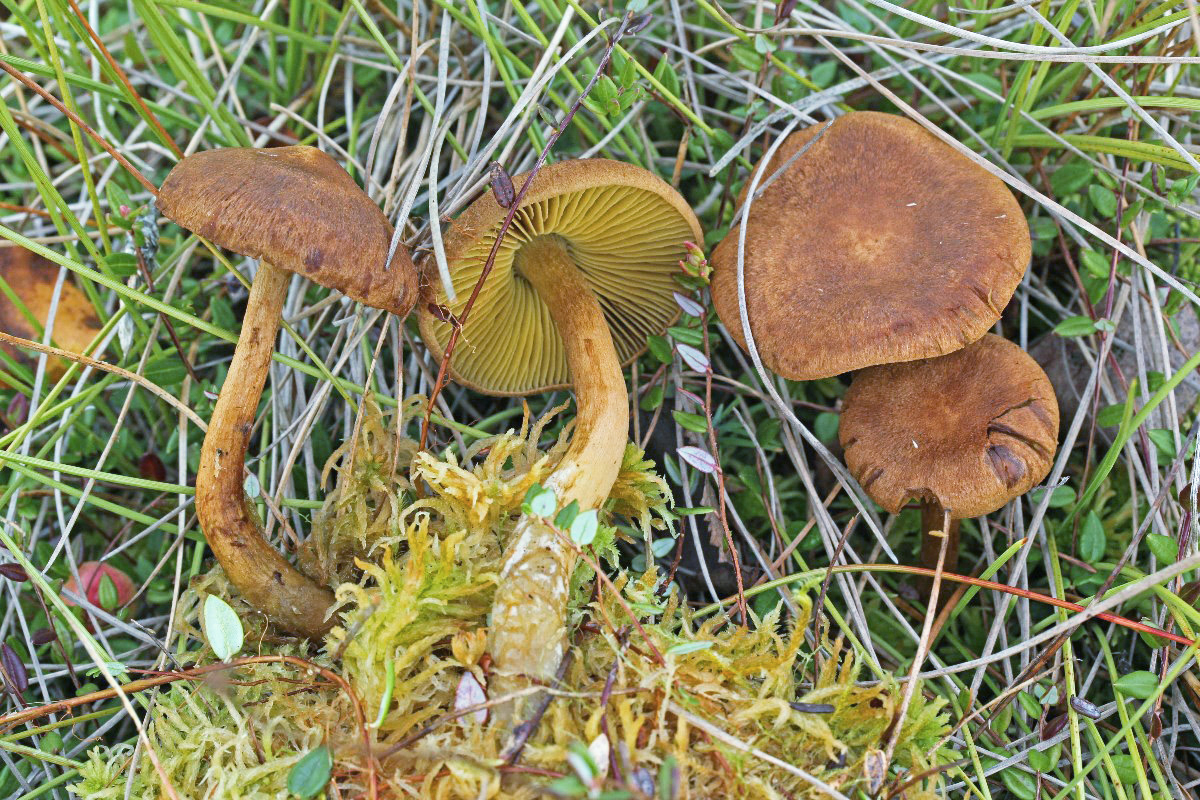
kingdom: Fungi
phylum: Basidiomycota
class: Agaricomycetes
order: Agaricales
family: Cortinariaceae
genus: Cortinarius
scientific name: Cortinarius davemallochii
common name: Mallochs slørhat
